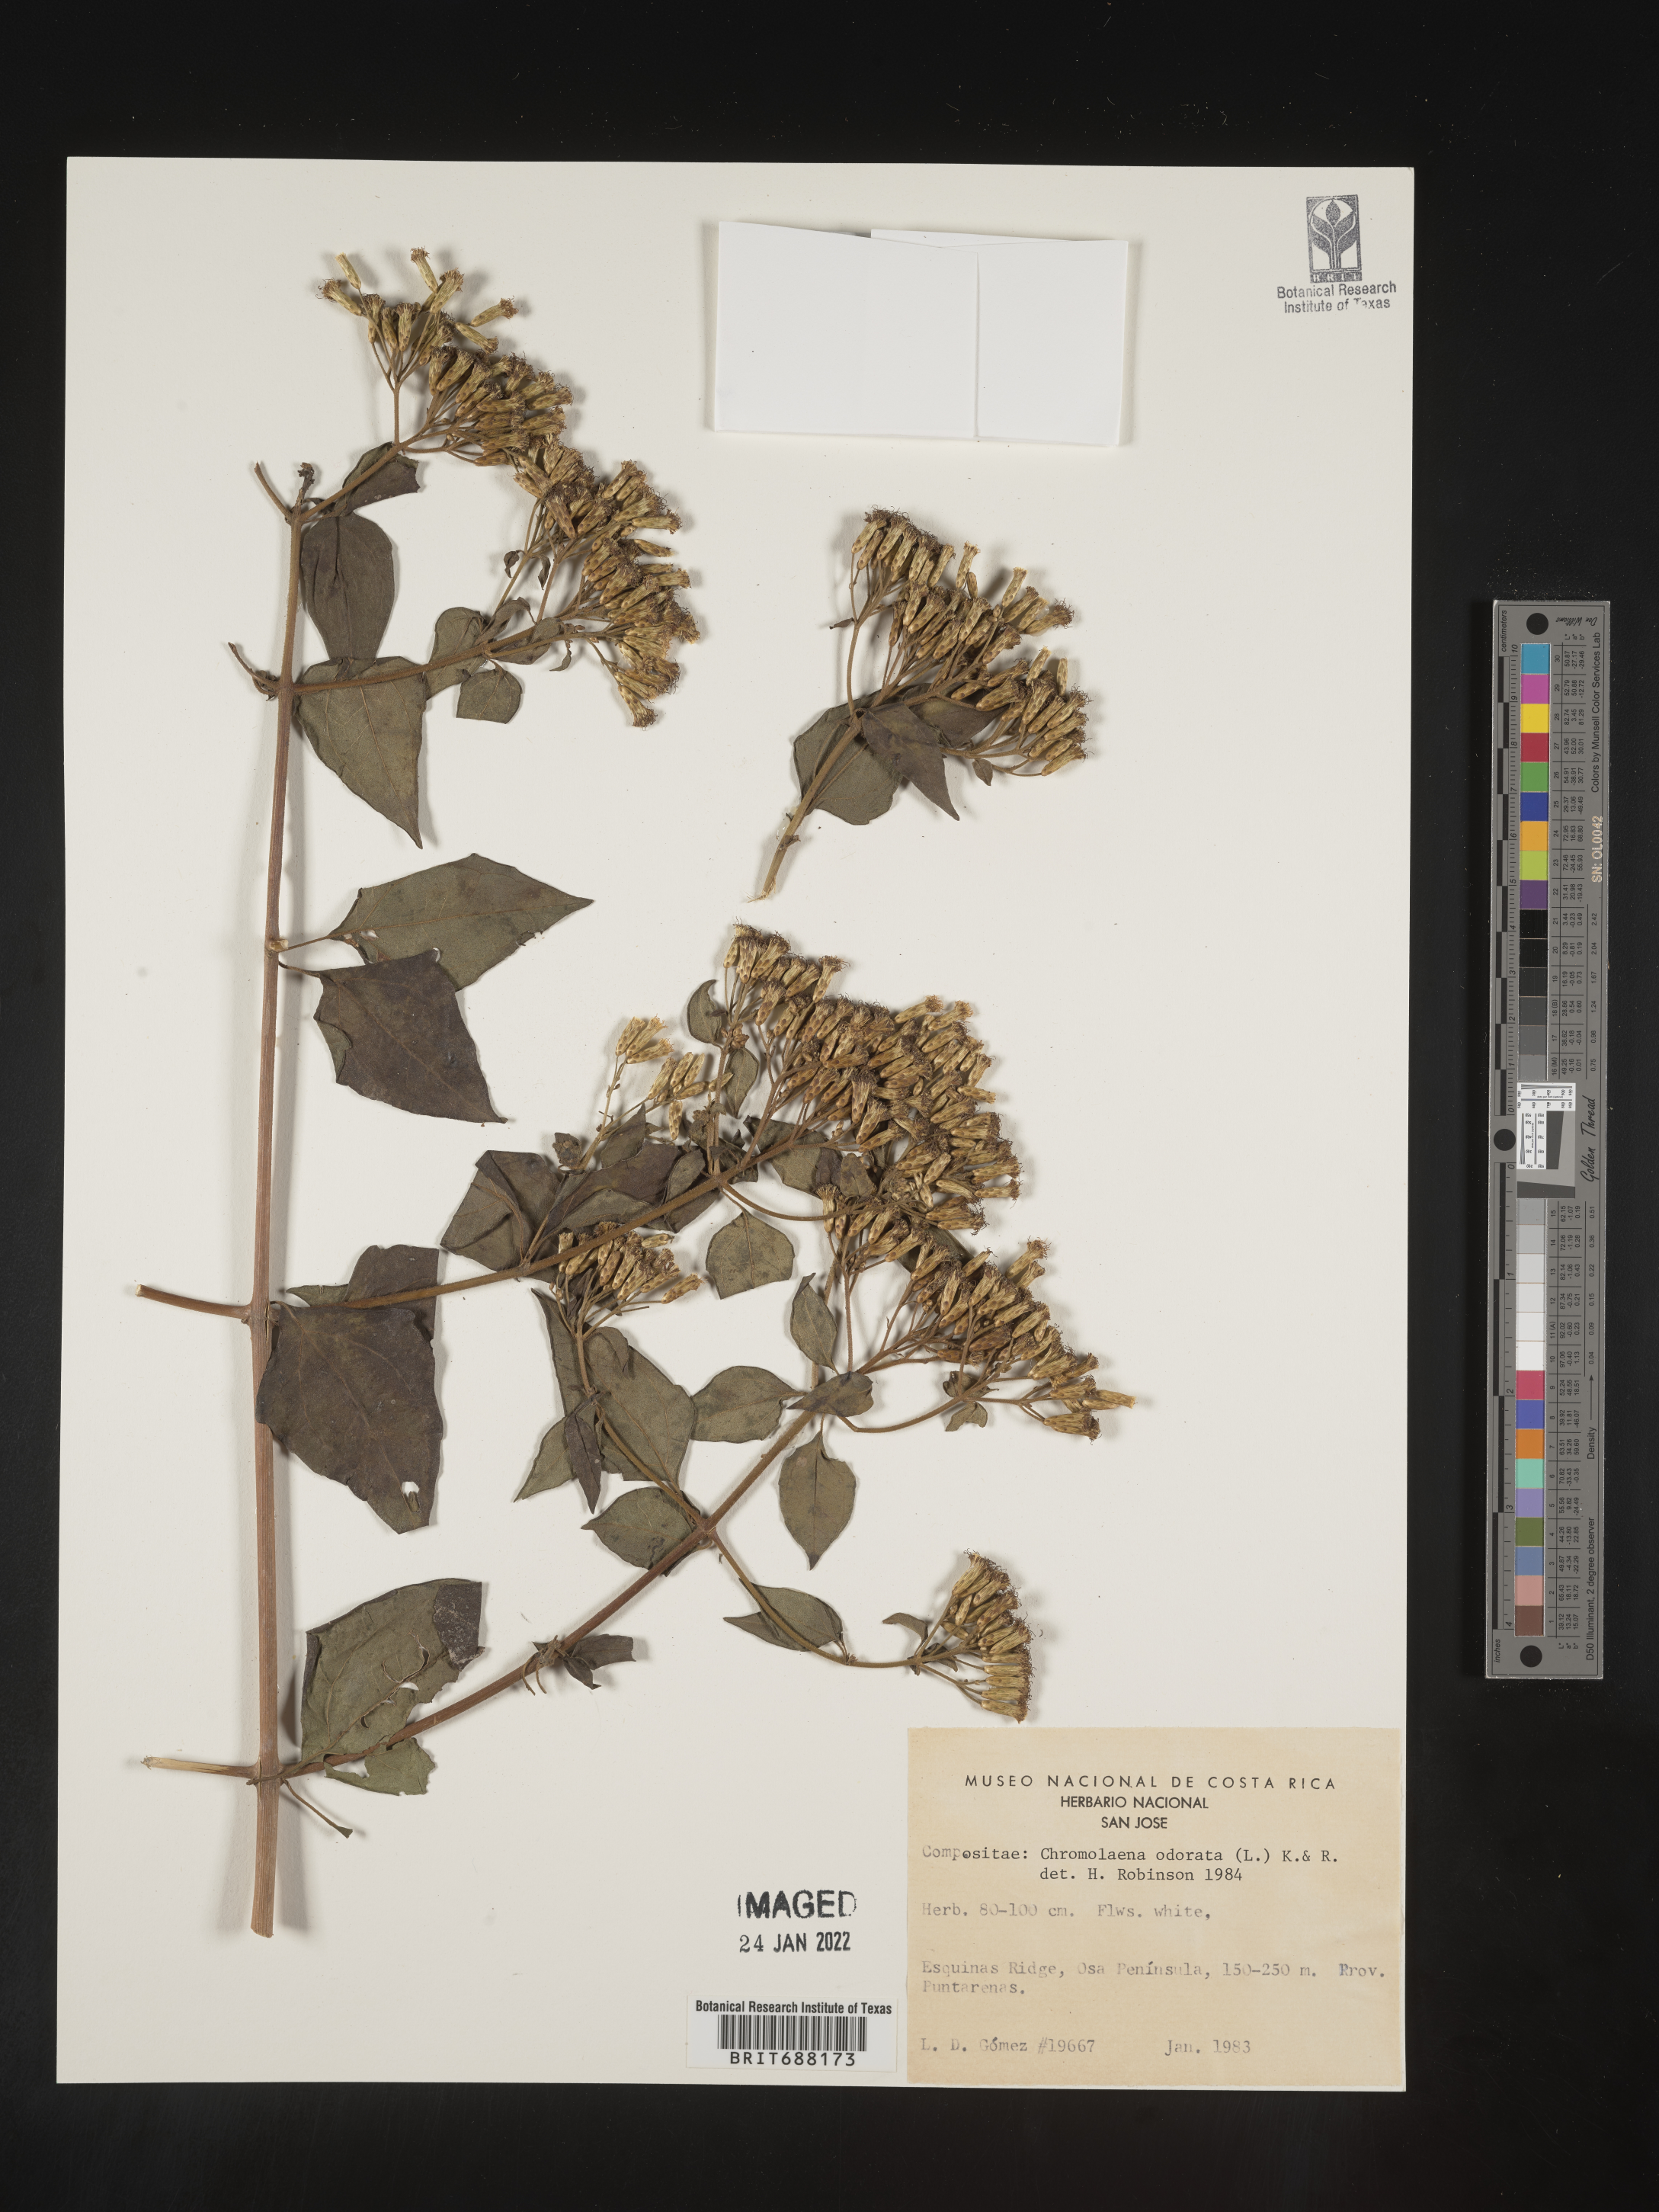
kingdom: Plantae
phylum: Tracheophyta
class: Magnoliopsida
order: Asterales
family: Asteraceae
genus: Chromolaena
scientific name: Chromolaena odorata
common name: Siamweed
